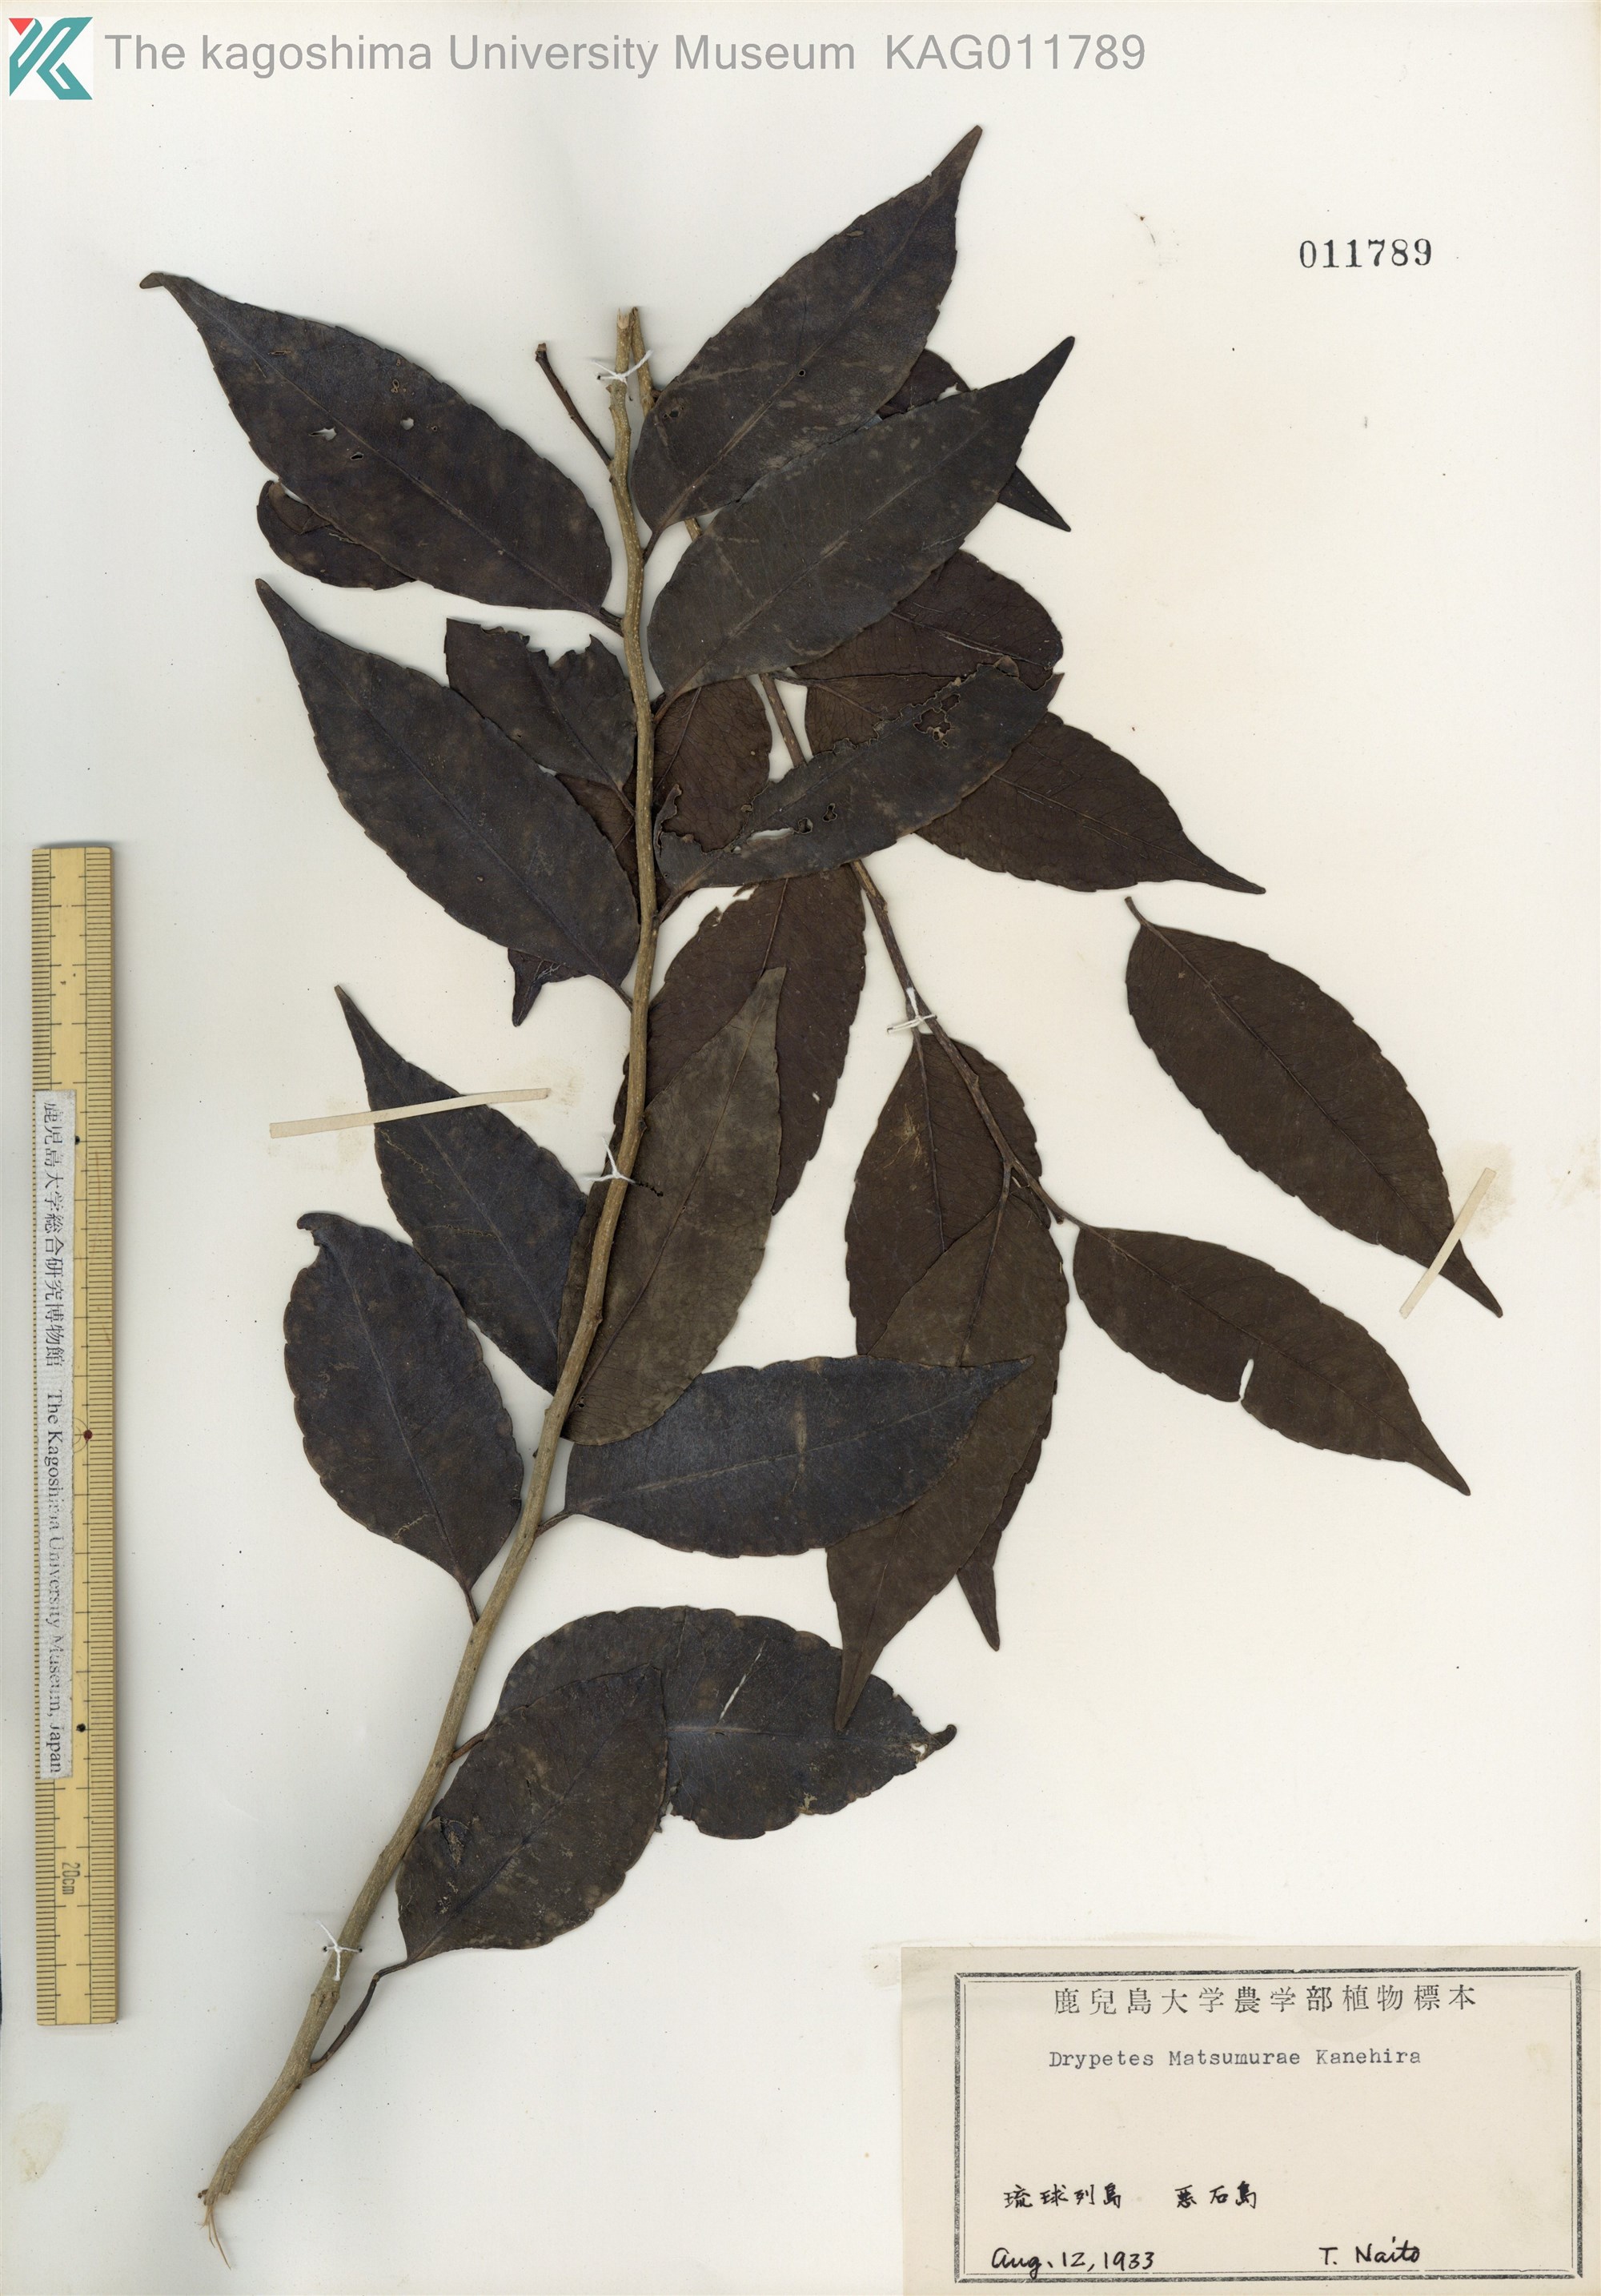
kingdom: Plantae
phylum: Tracheophyta
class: Magnoliopsida
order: Malpighiales
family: Putranjivaceae
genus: Putranjiva
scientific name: Putranjiva matsumurae
